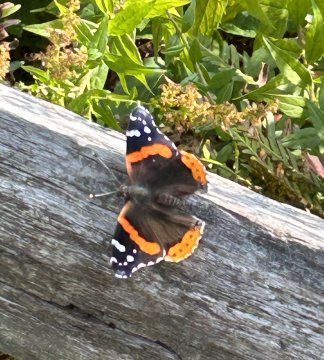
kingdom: Animalia
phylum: Arthropoda
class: Insecta
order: Lepidoptera
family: Nymphalidae
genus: Vanessa
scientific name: Vanessa atalanta
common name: Red Admiral
